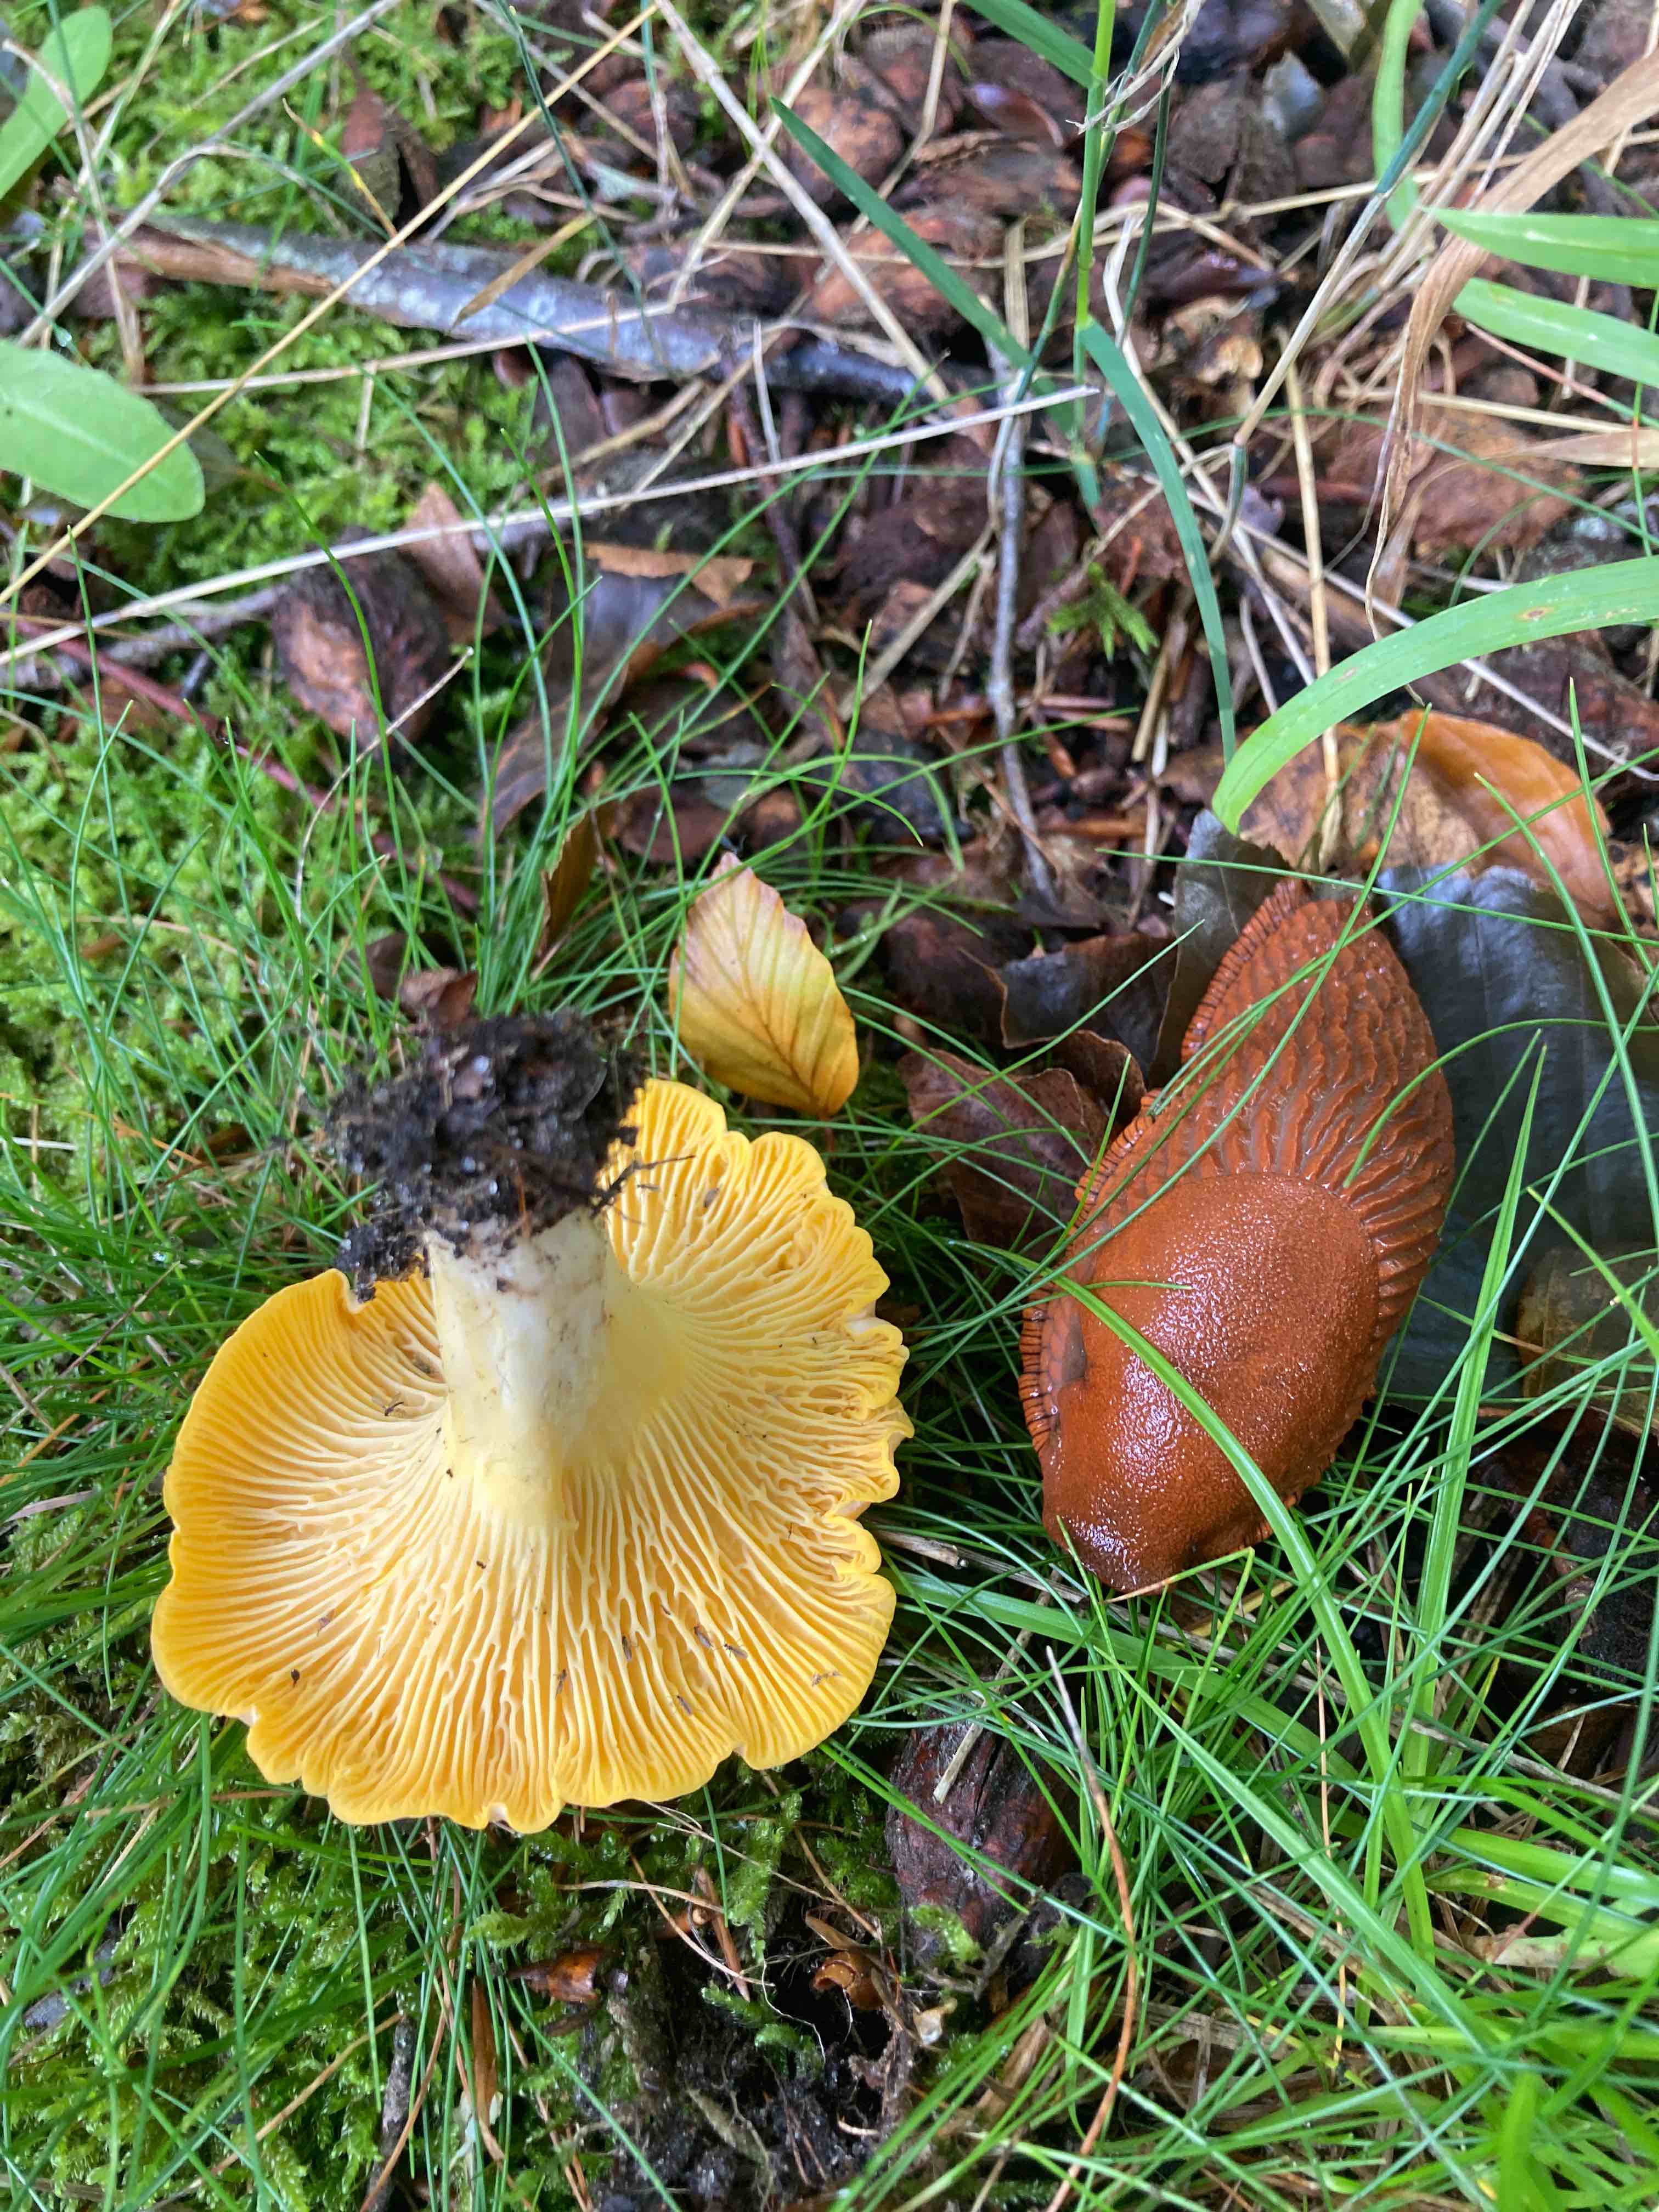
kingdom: Fungi
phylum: Basidiomycota
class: Agaricomycetes
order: Cantharellales
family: Hydnaceae
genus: Cantharellus
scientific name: Cantharellus pallens
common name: bleg kantarel
